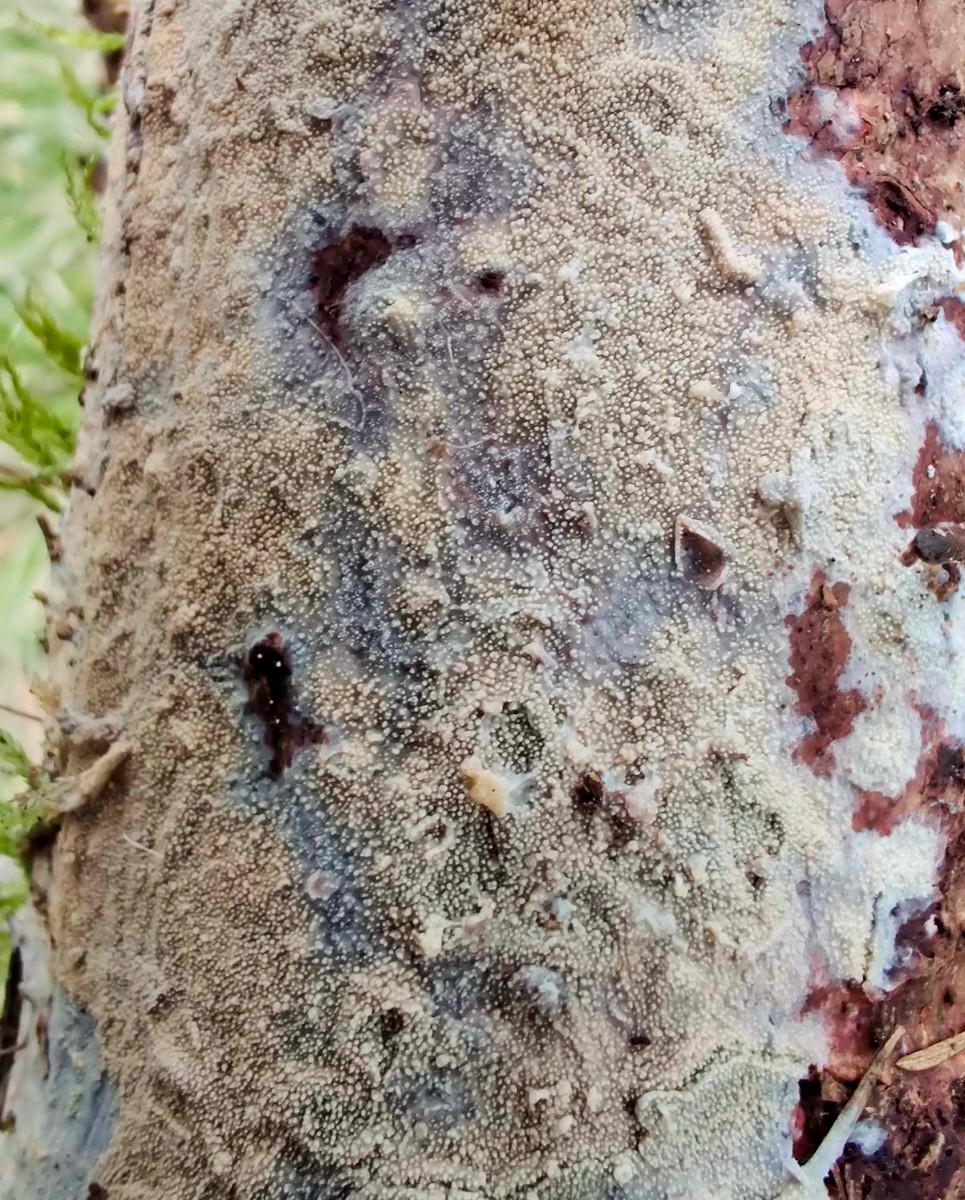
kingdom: Fungi
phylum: Basidiomycota
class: Agaricomycetes
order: Hymenochaetales
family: Rickenellaceae
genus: Resinicium
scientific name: Resinicium bicolor
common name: almindelig vokstand
